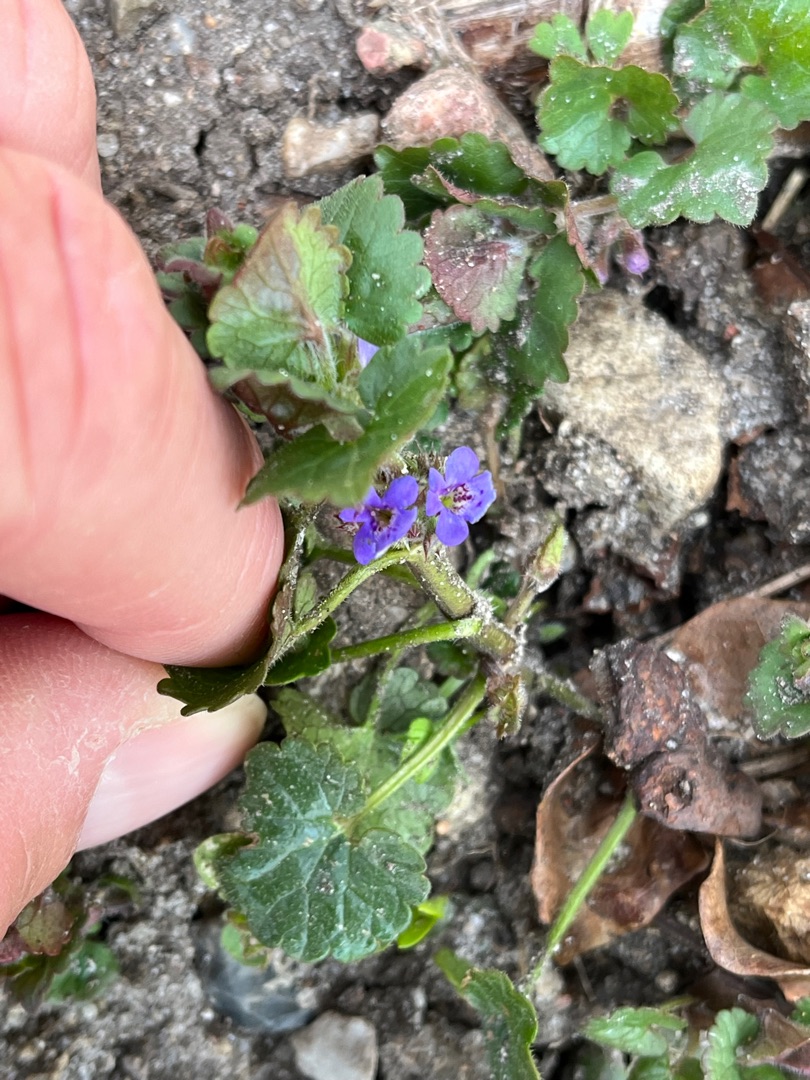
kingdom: Plantae
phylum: Tracheophyta
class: Magnoliopsida
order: Lamiales
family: Lamiaceae
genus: Glechoma
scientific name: Glechoma hederacea
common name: Korsknap
